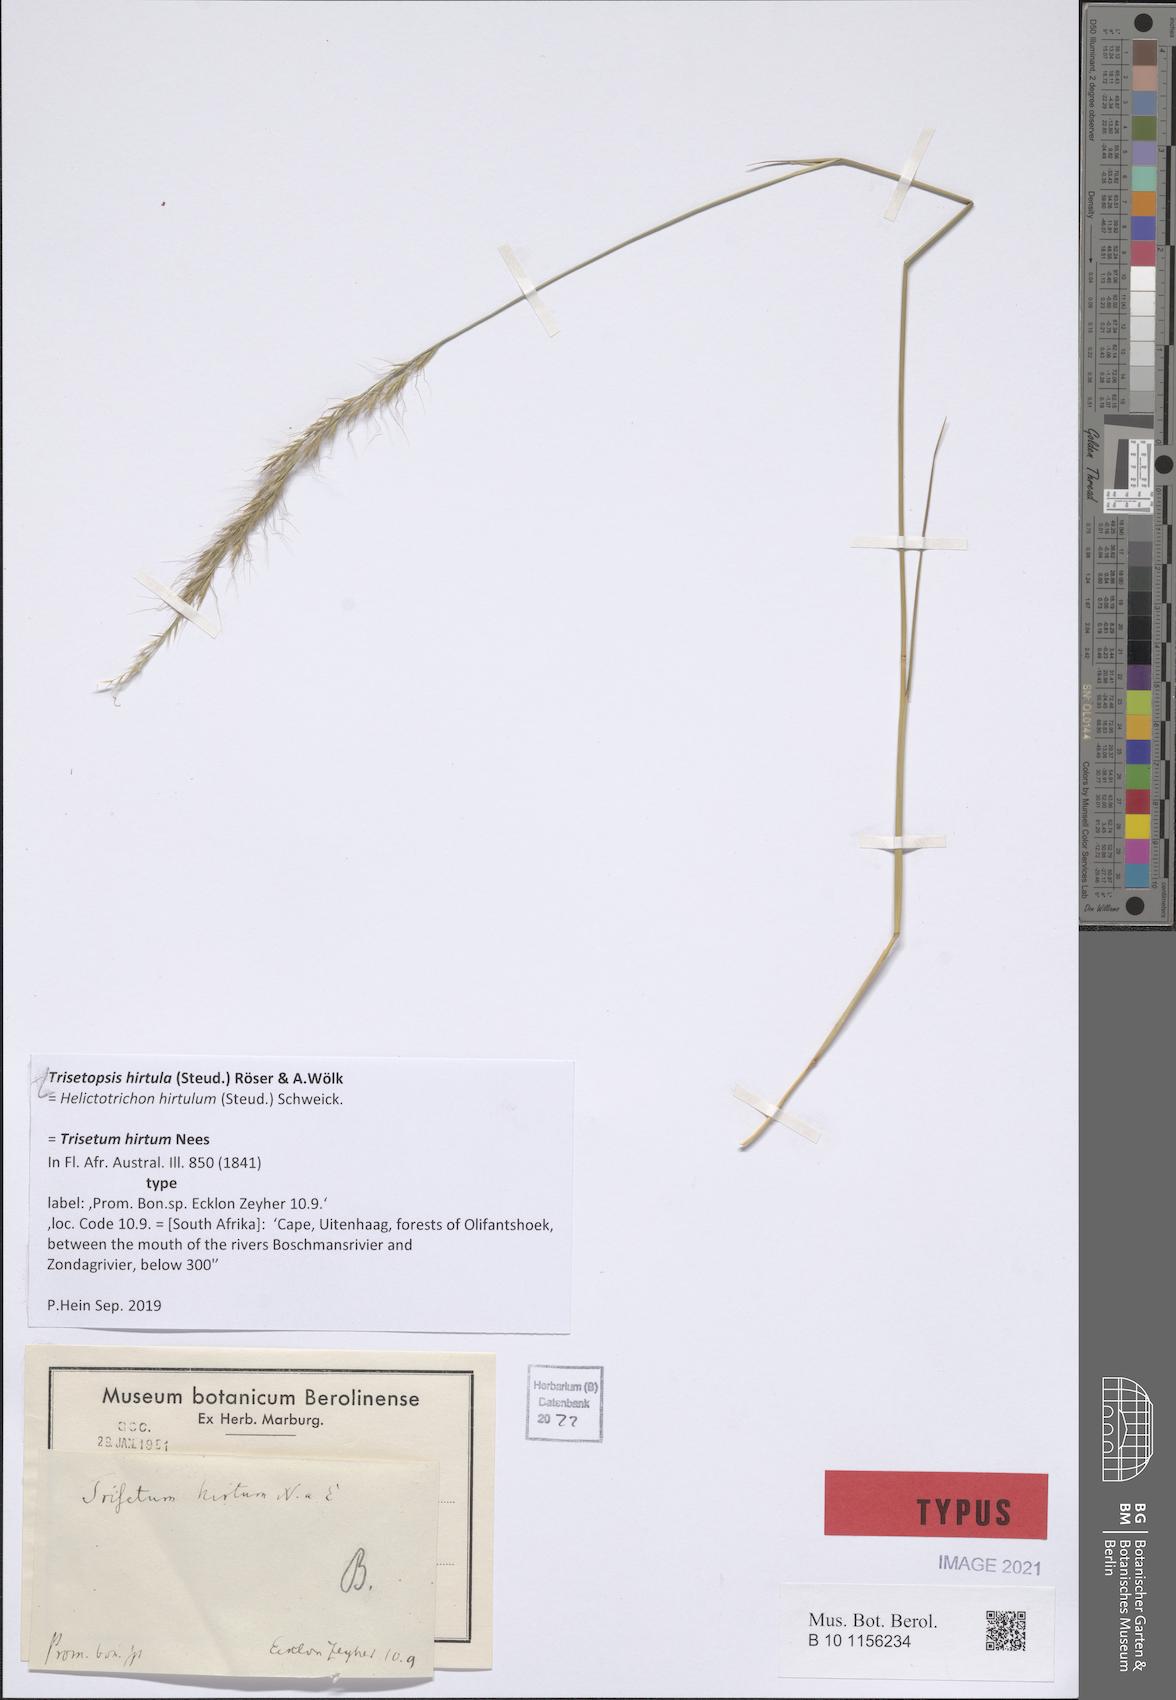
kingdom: Plantae
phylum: Tracheophyta
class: Liliopsida
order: Poales
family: Poaceae
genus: Trisetopsis
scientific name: Trisetopsis hirtula
